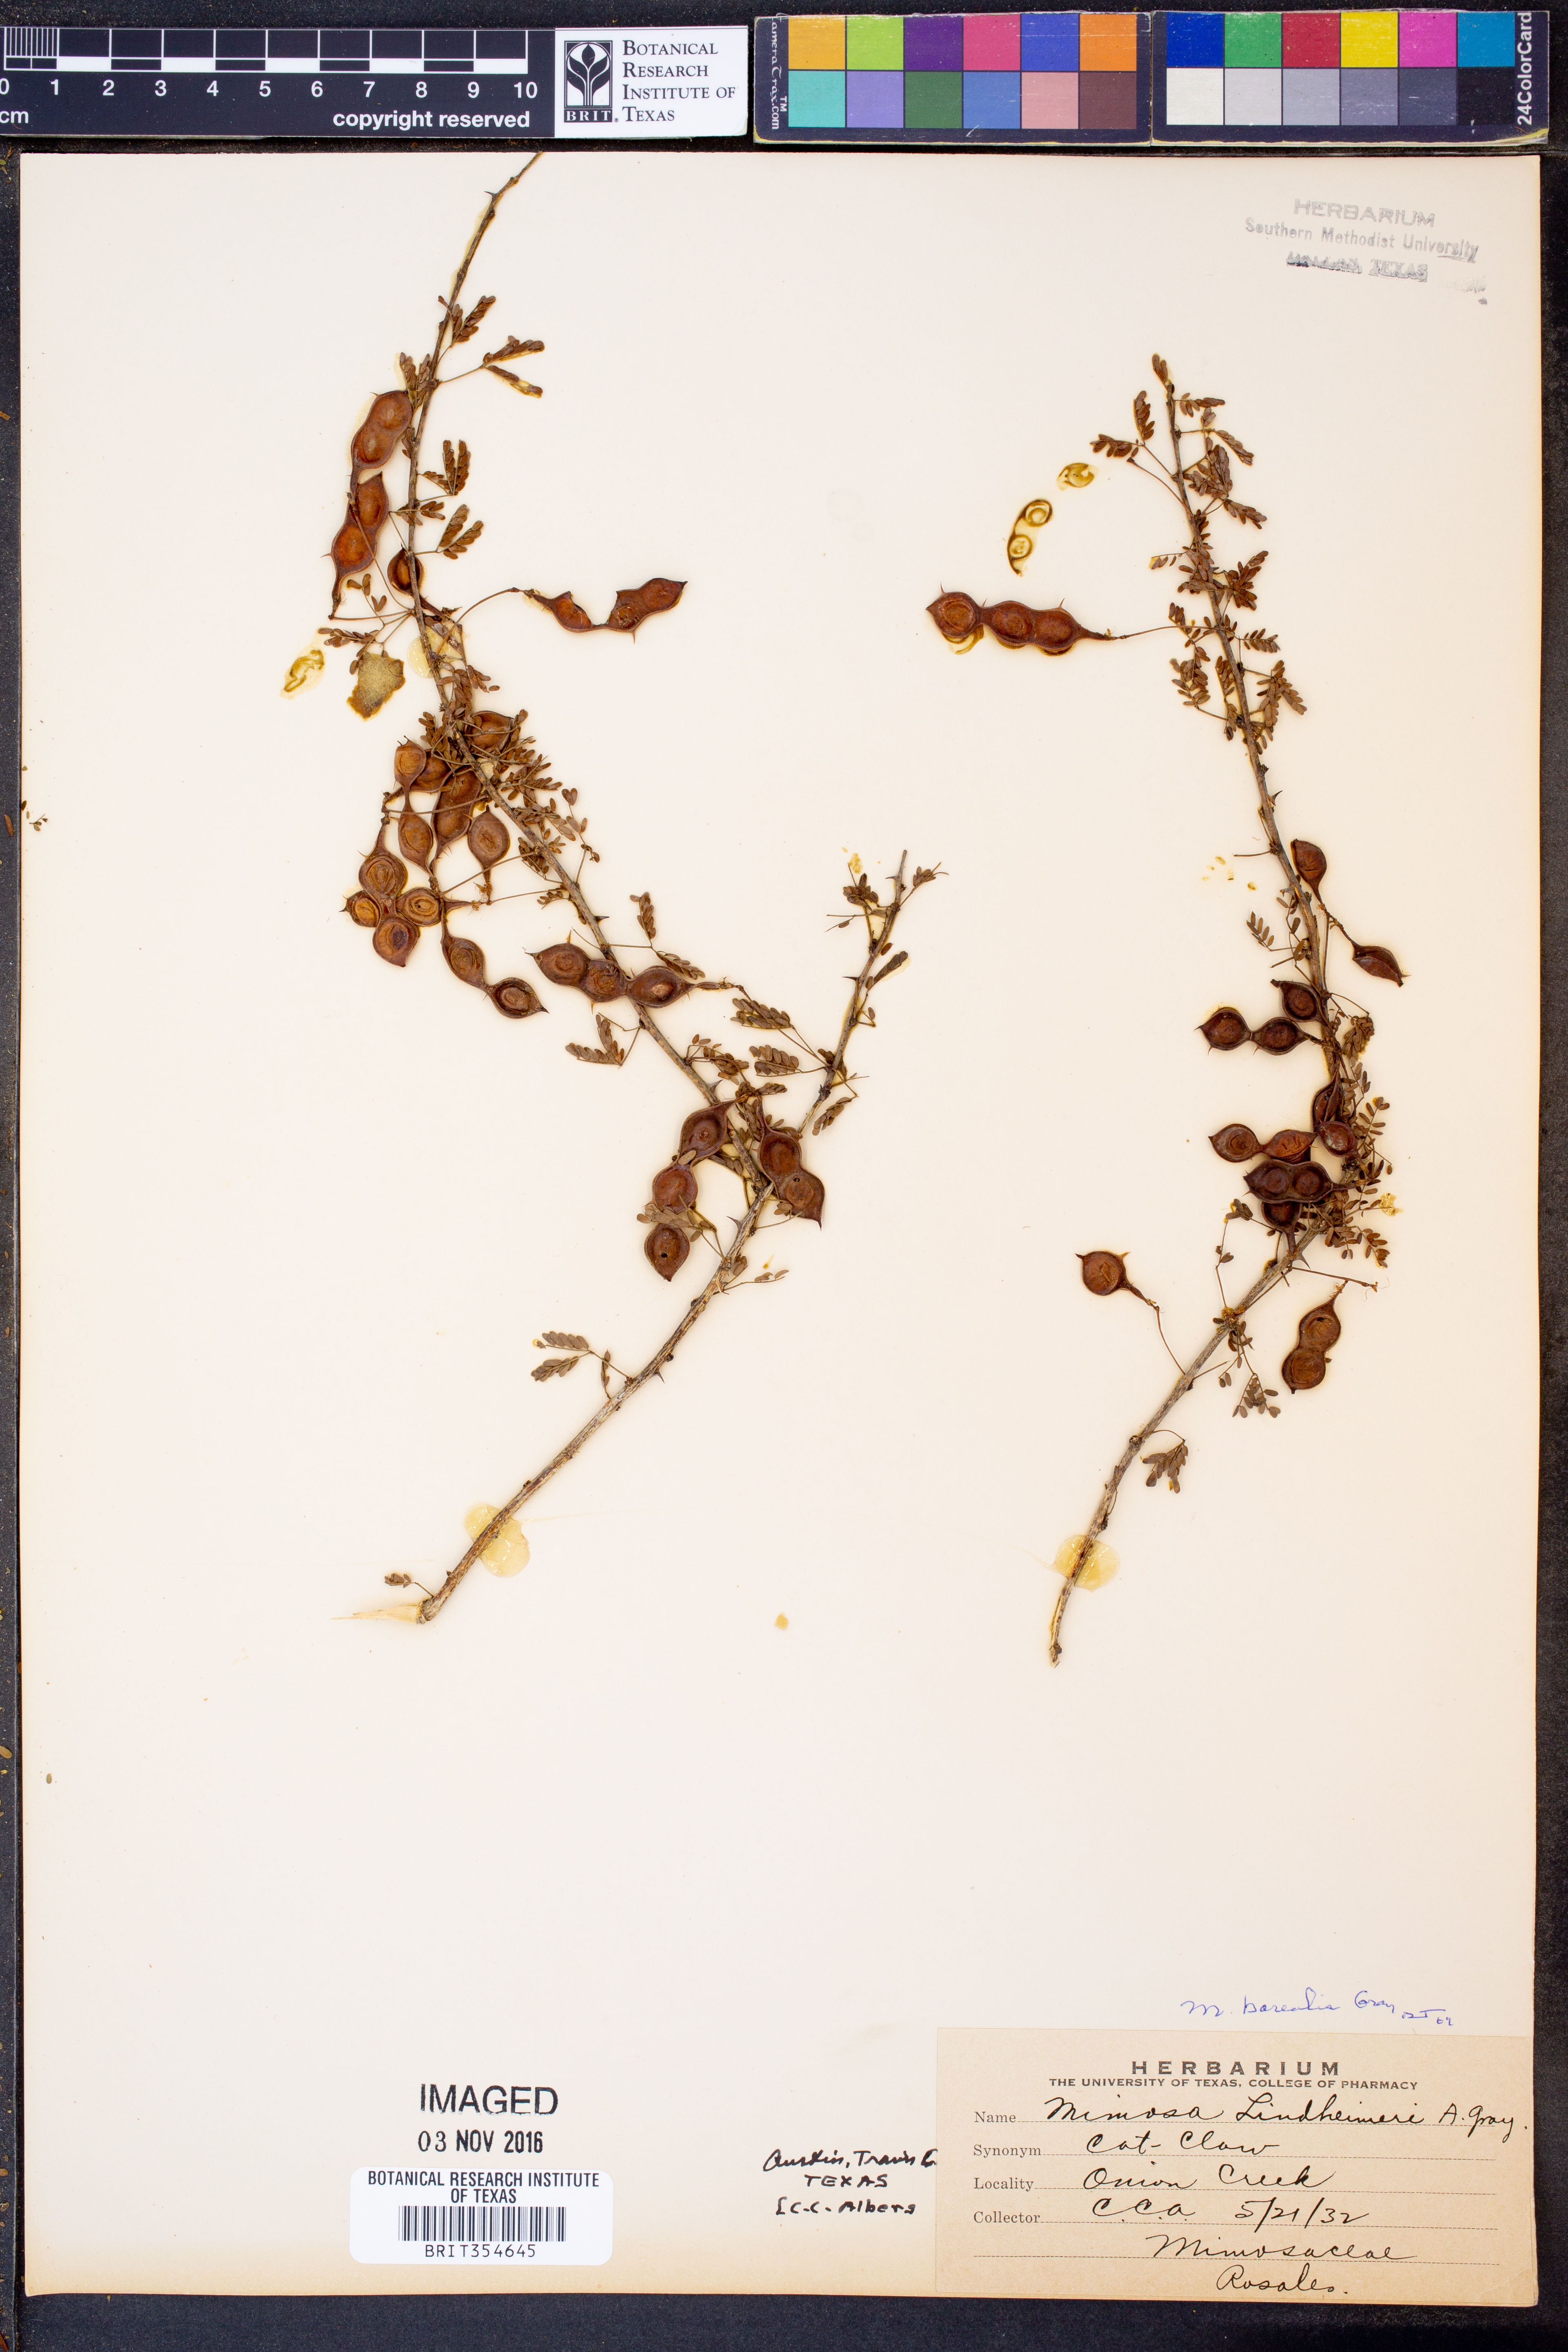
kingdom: Plantae
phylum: Tracheophyta
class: Magnoliopsida
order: Fabales
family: Fabaceae
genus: Mimosa
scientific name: Mimosa borealis
